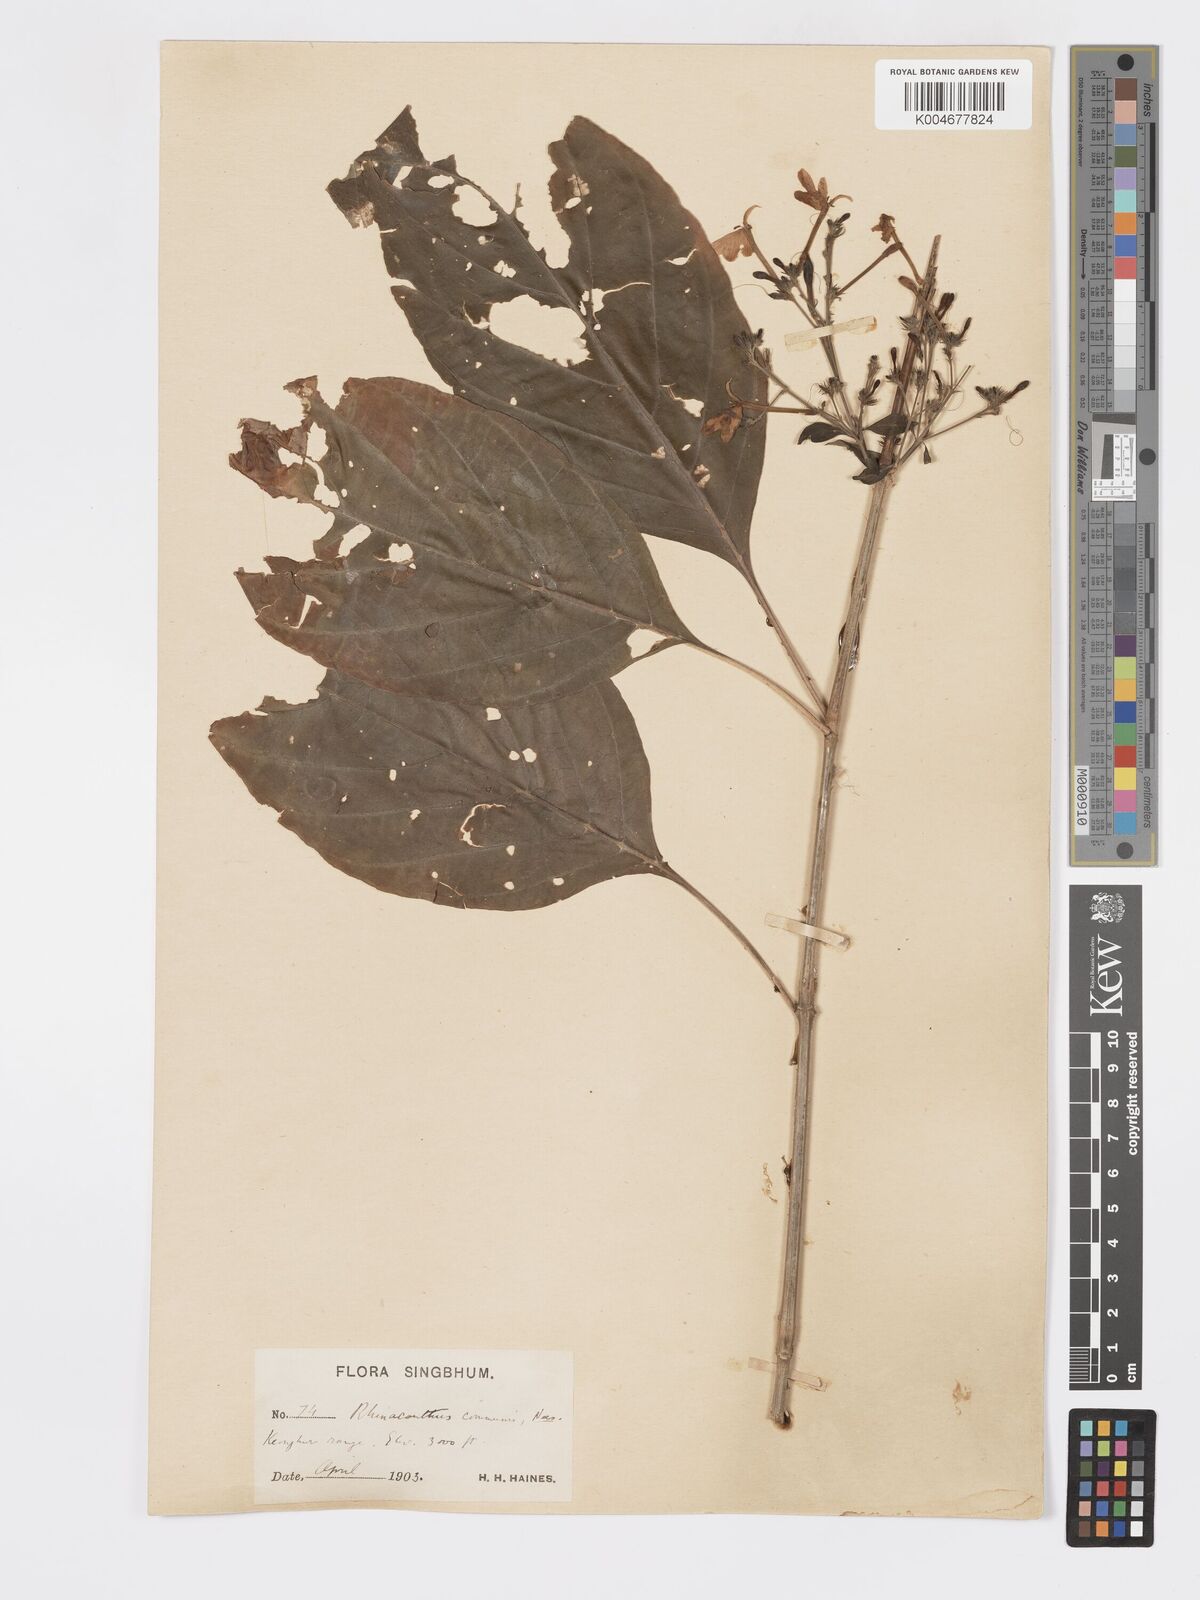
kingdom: Plantae
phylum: Tracheophyta
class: Magnoliopsida
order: Lamiales
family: Acanthaceae
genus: Rhinacanthus
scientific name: Rhinacanthus nasutus
